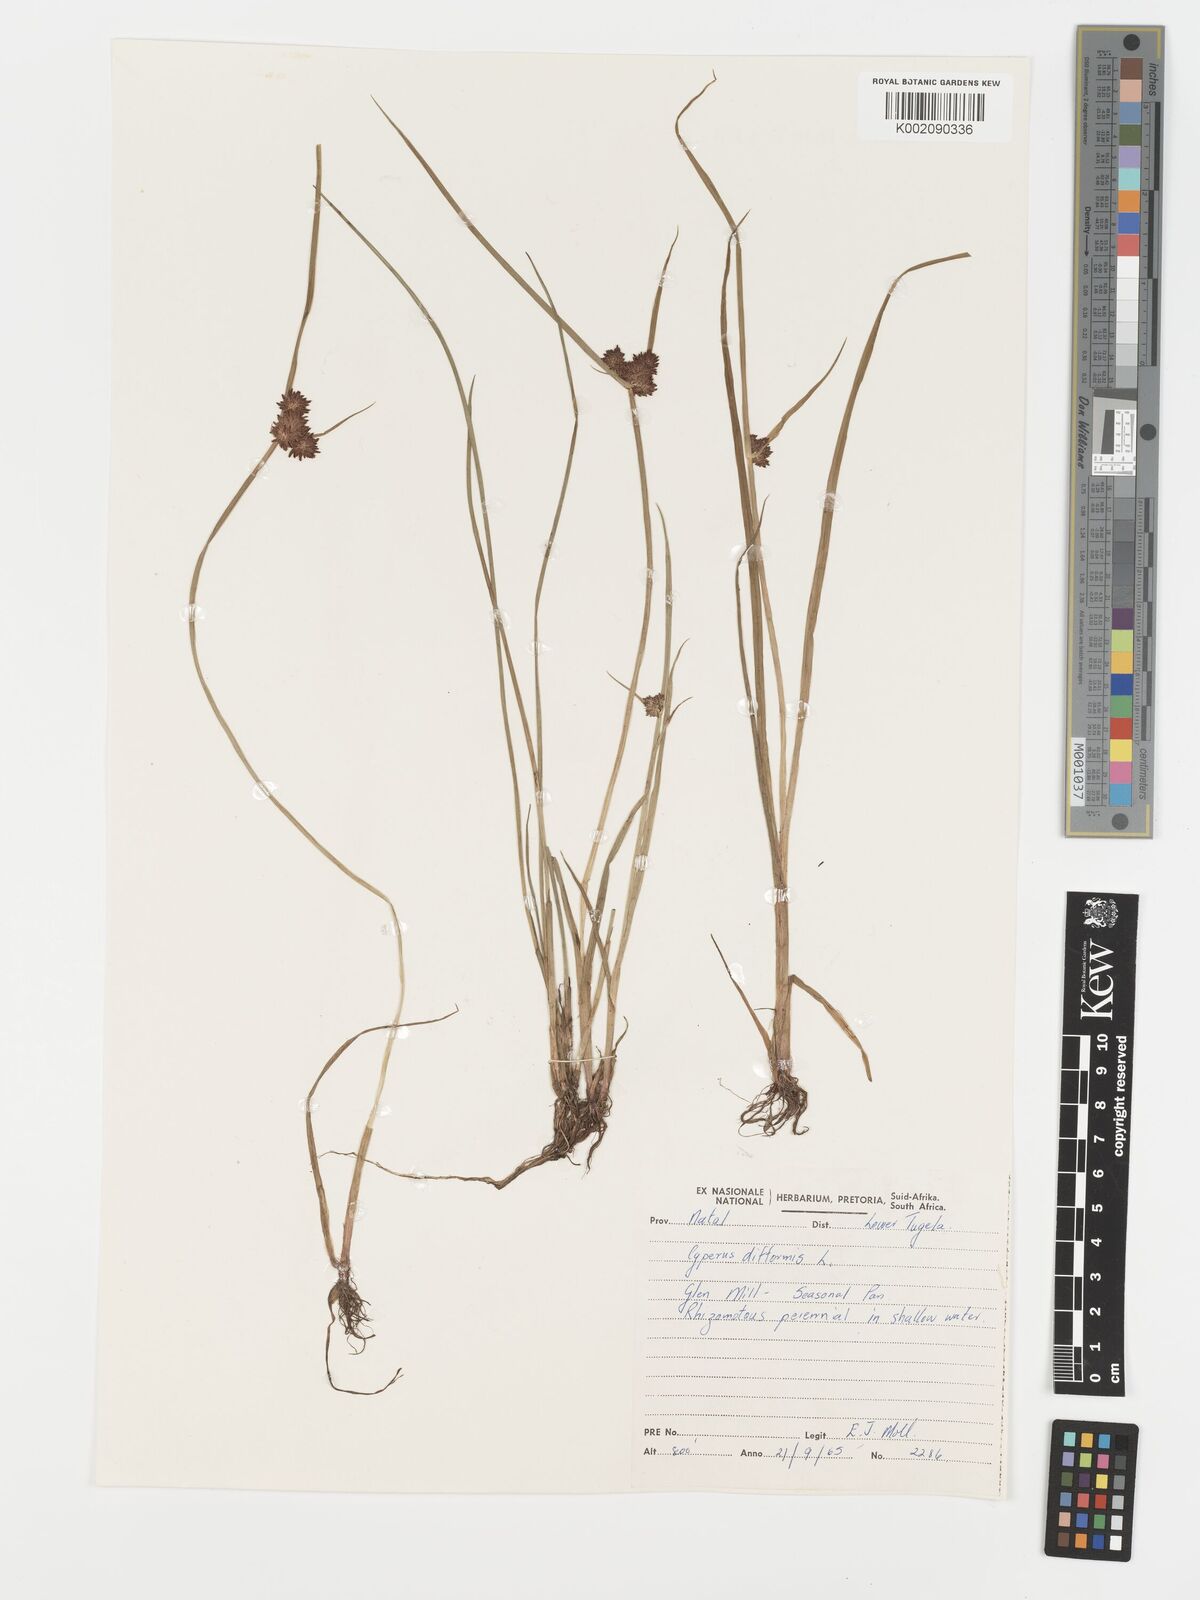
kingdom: Plantae
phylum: Tracheophyta
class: Liliopsida
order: Poales
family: Cyperaceae
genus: Cyperus
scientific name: Cyperus difformis
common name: Variable flatsedge
